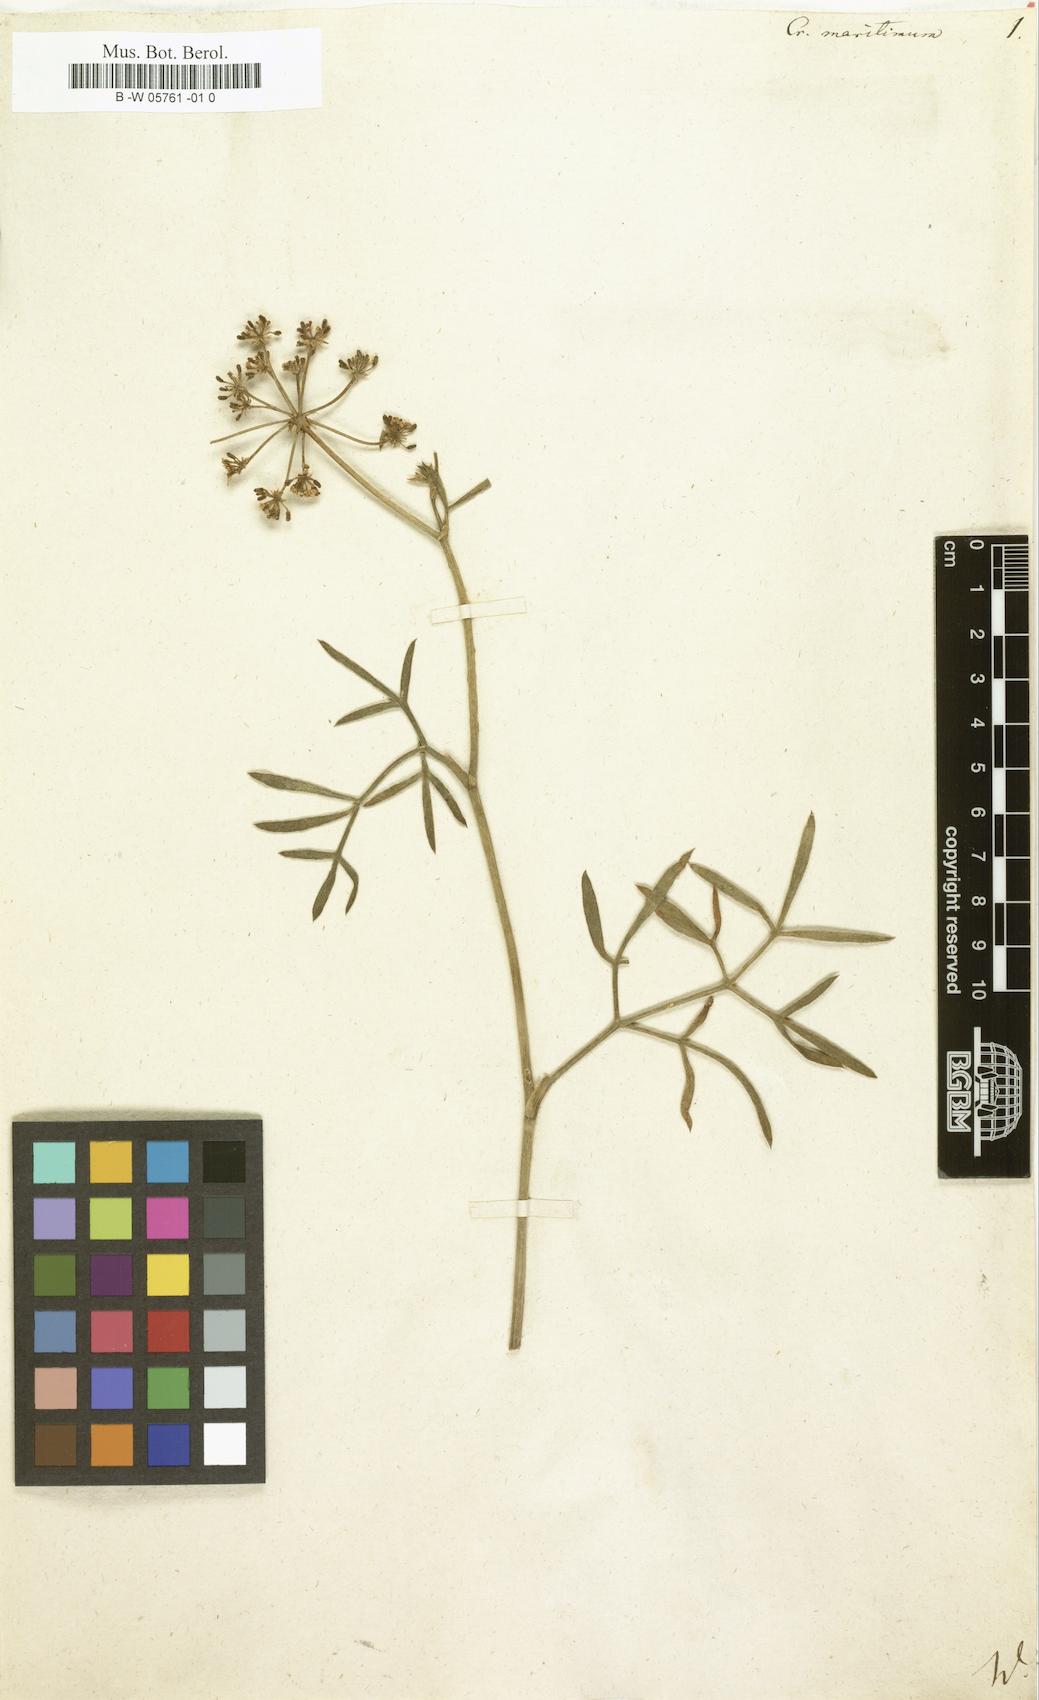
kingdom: Plantae
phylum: Tracheophyta
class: Magnoliopsida
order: Apiales
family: Apiaceae
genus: Crithmum
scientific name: Crithmum maritimum
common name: Rock samphire
